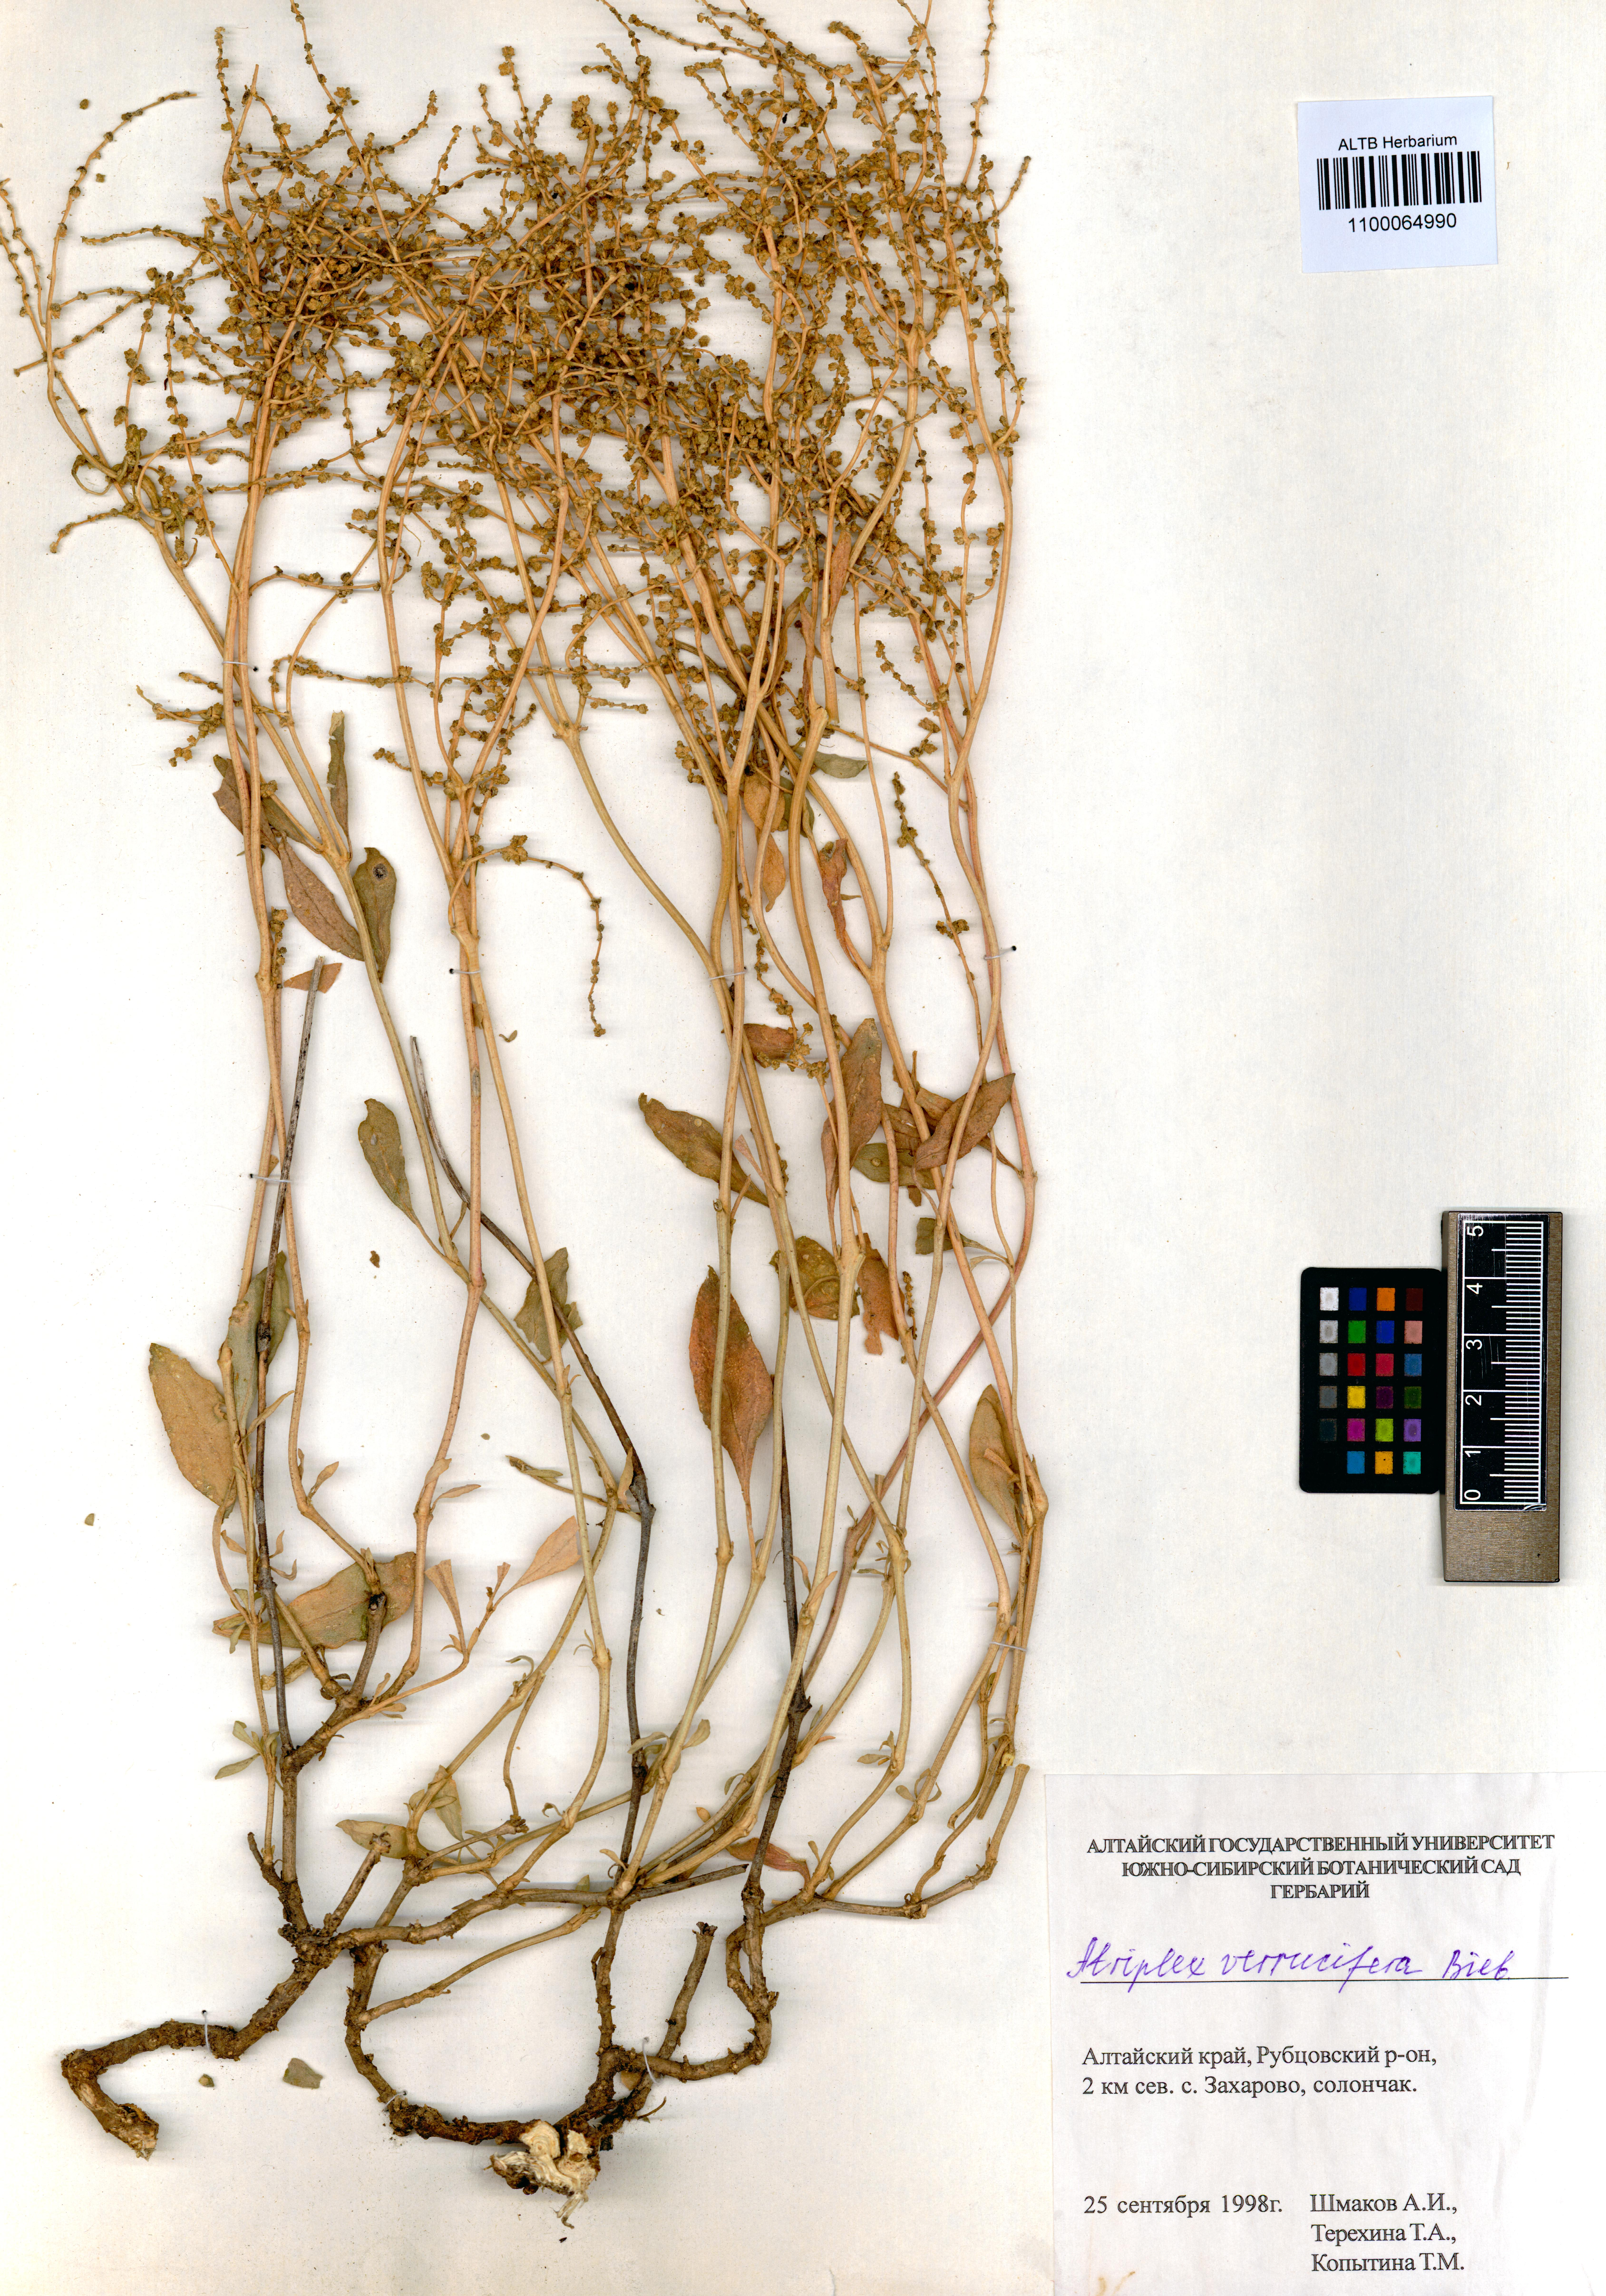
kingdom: Plantae
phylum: Tracheophyta
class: Magnoliopsida
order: Caryophyllales
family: Amaranthaceae
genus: Halimione
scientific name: Halimione verrucifera
